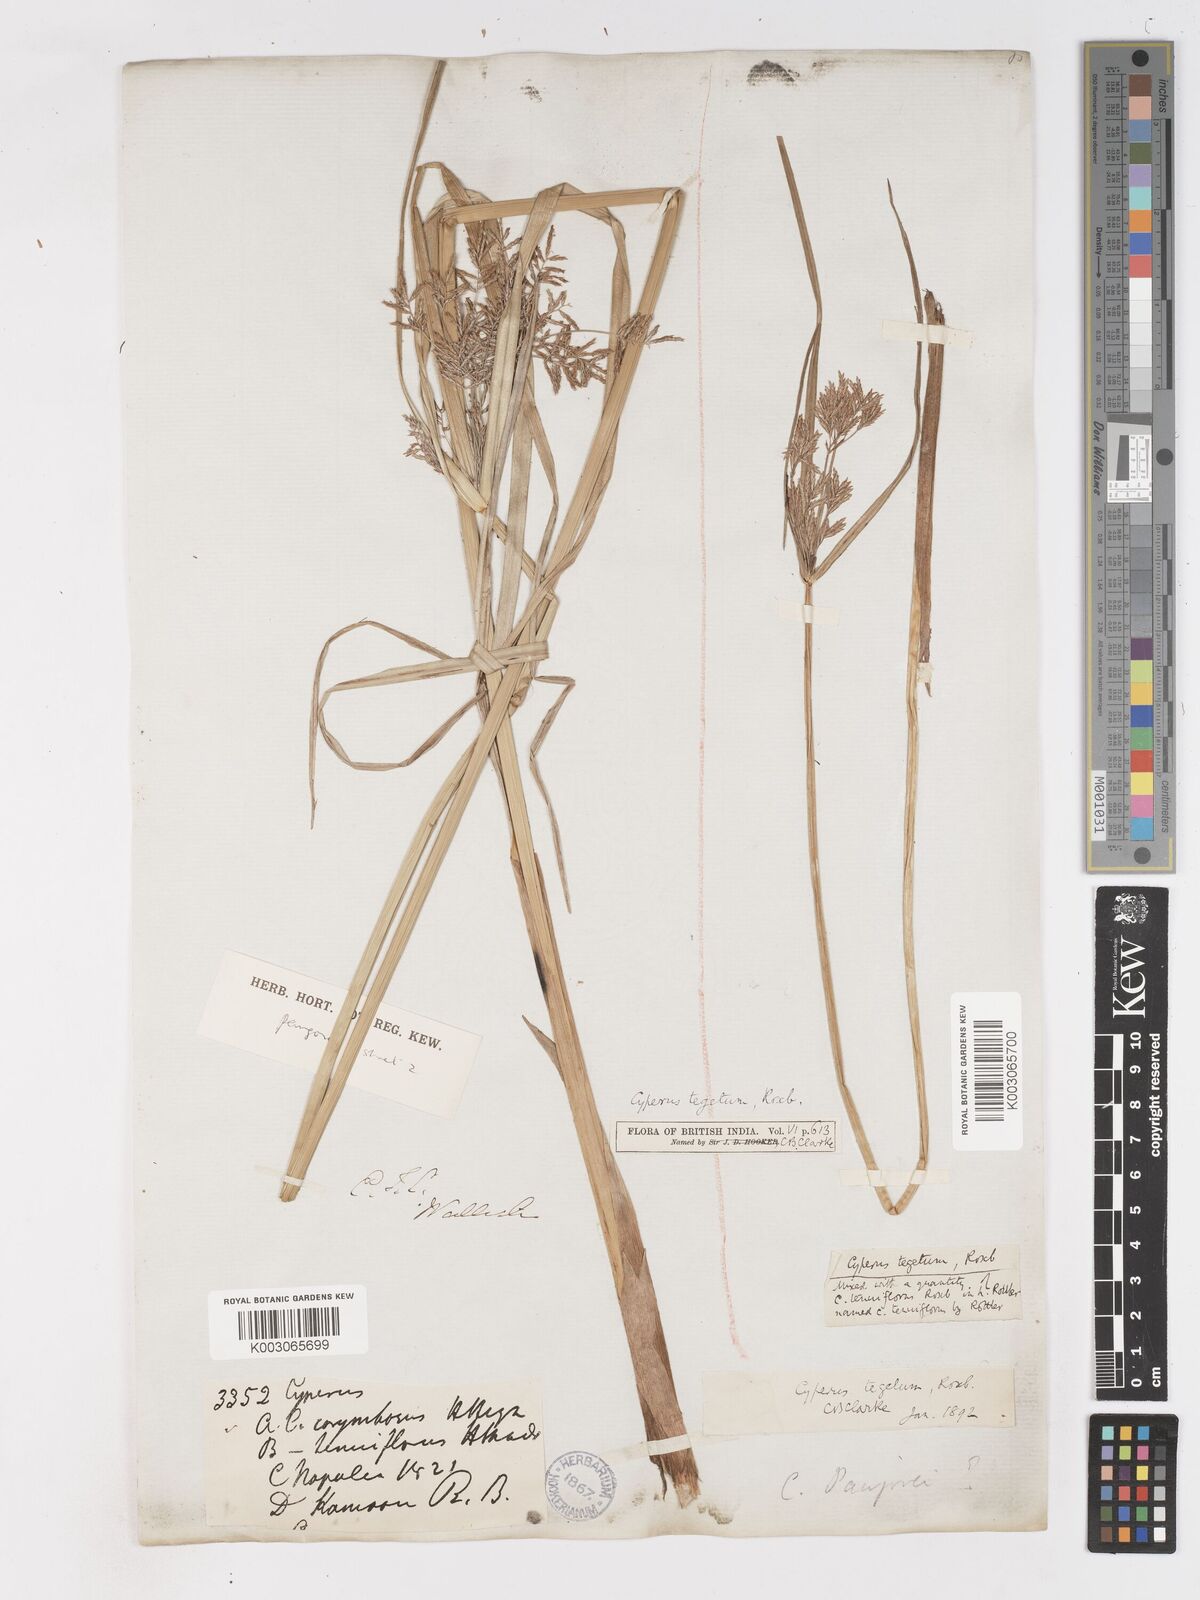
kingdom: Plantae
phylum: Tracheophyta
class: Liliopsida
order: Poales
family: Cyperaceae
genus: Cyperus
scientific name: Cyperus pangorei
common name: Mat sedge
